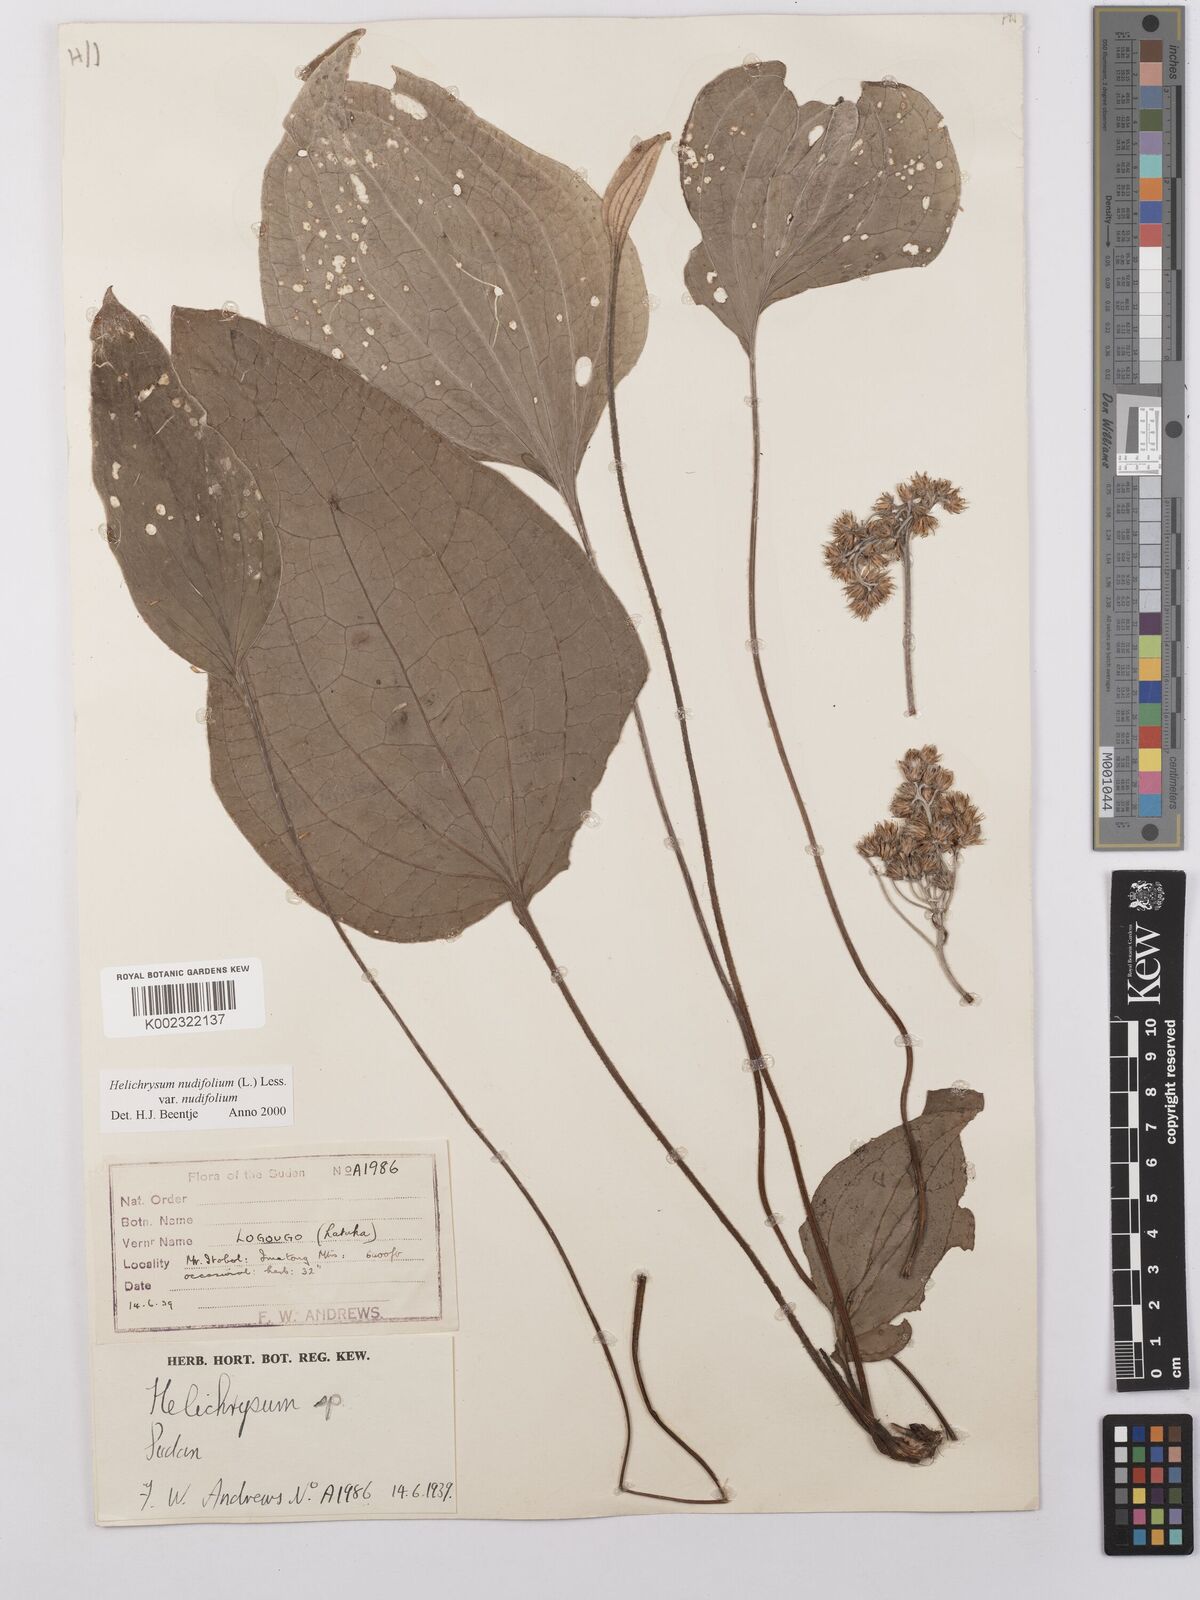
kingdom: Plantae
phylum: Tracheophyta
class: Magnoliopsida
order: Asterales
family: Asteraceae
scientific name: Asteraceae
